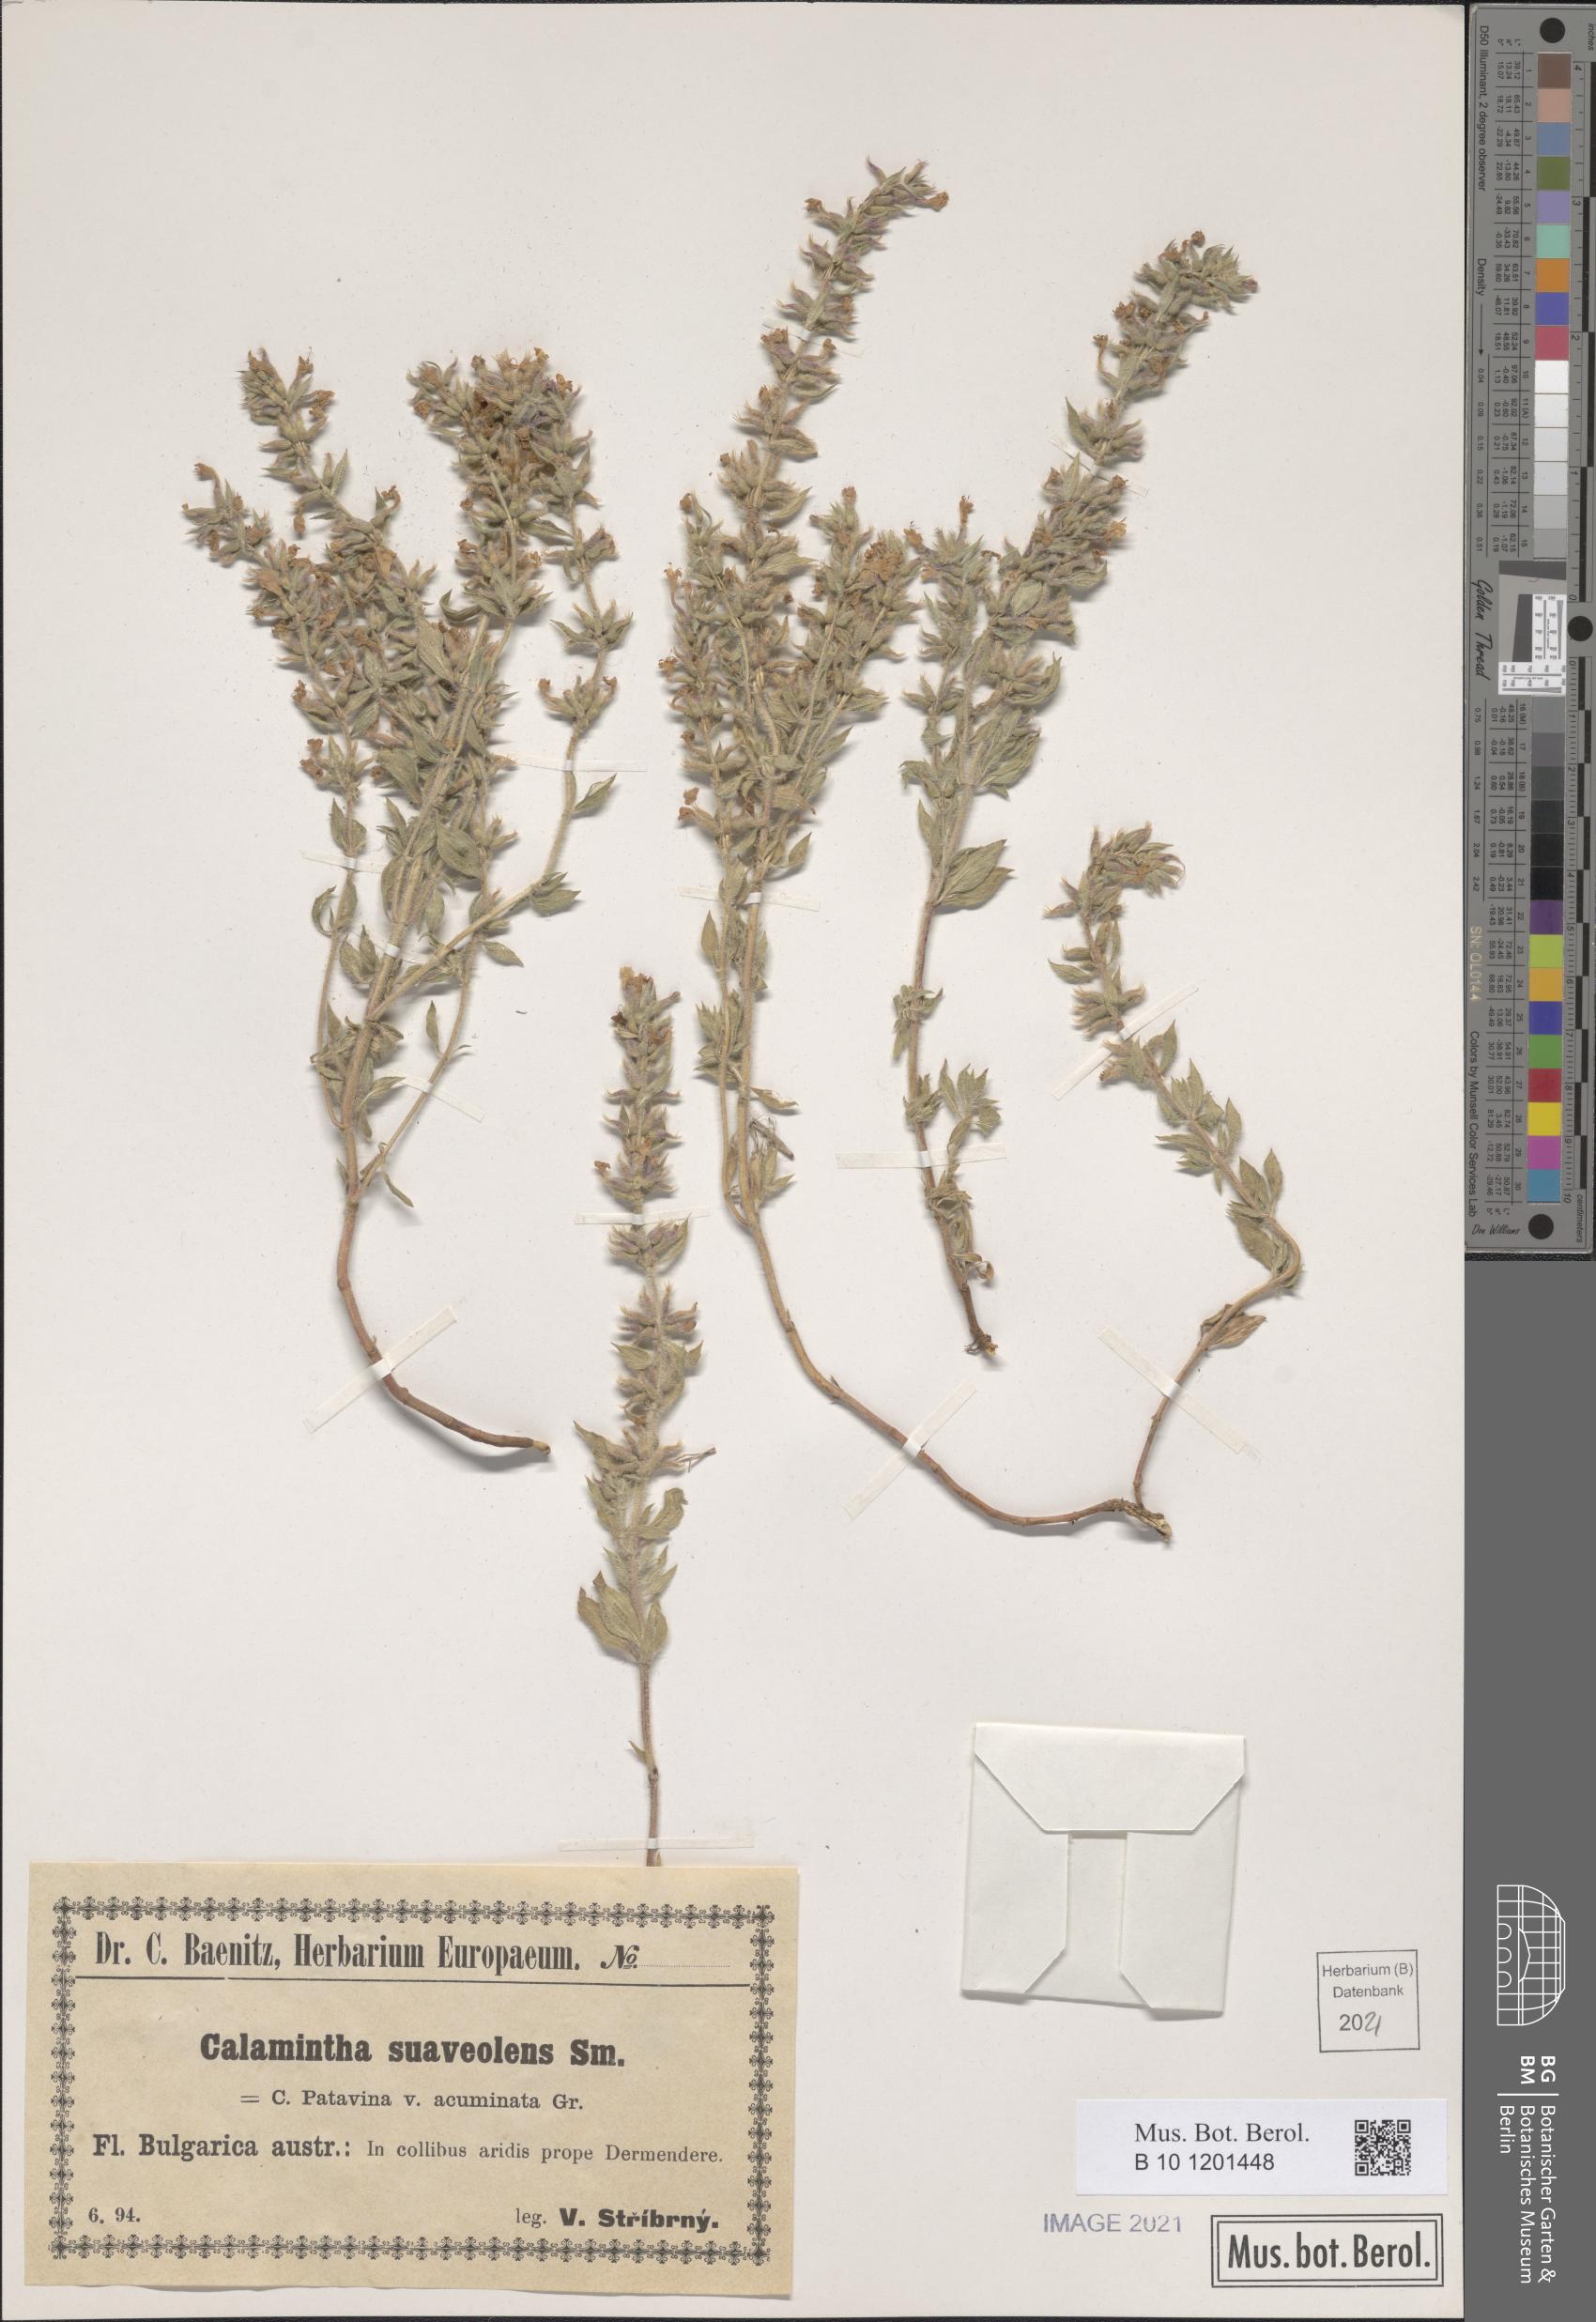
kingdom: Plantae
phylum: Tracheophyta
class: Magnoliopsida
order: Lamiales
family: Lamiaceae
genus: Clinopodium
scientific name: Clinopodium suaveolens
